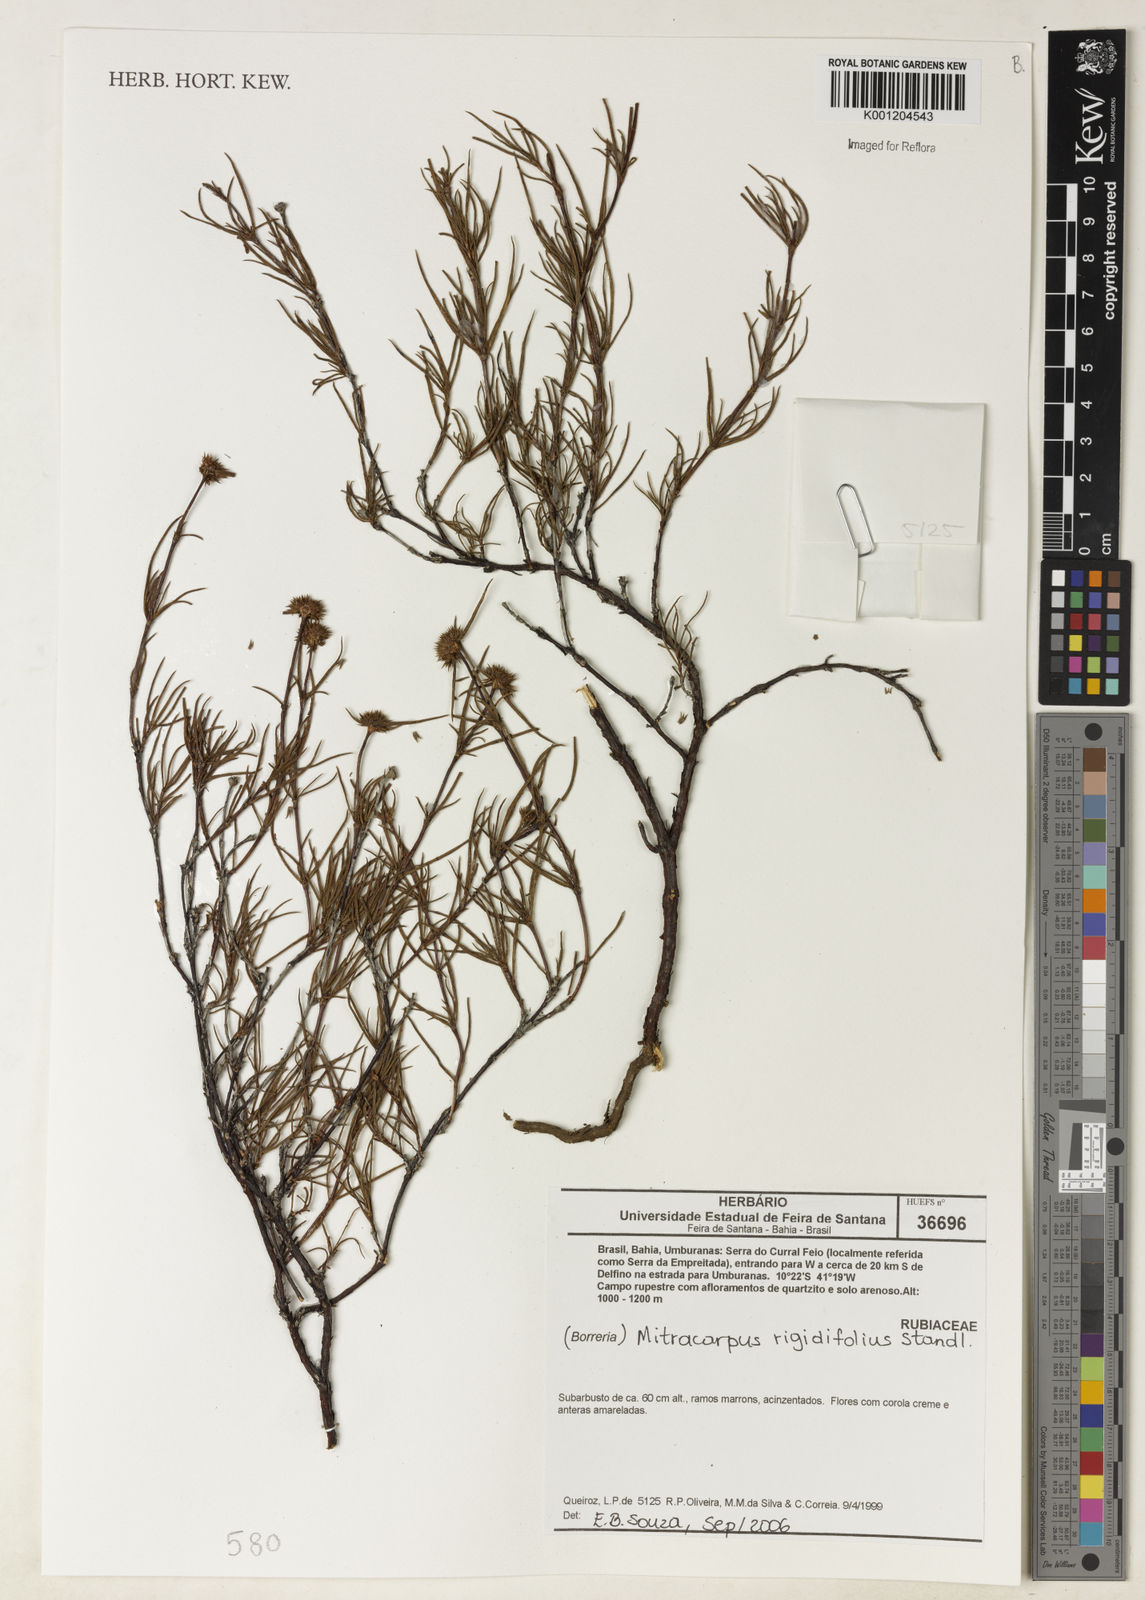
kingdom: Plantae
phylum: Tracheophyta
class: Magnoliopsida
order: Gentianales
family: Rubiaceae
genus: Mitracarpus
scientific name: Mitracarpus rigidifolius
